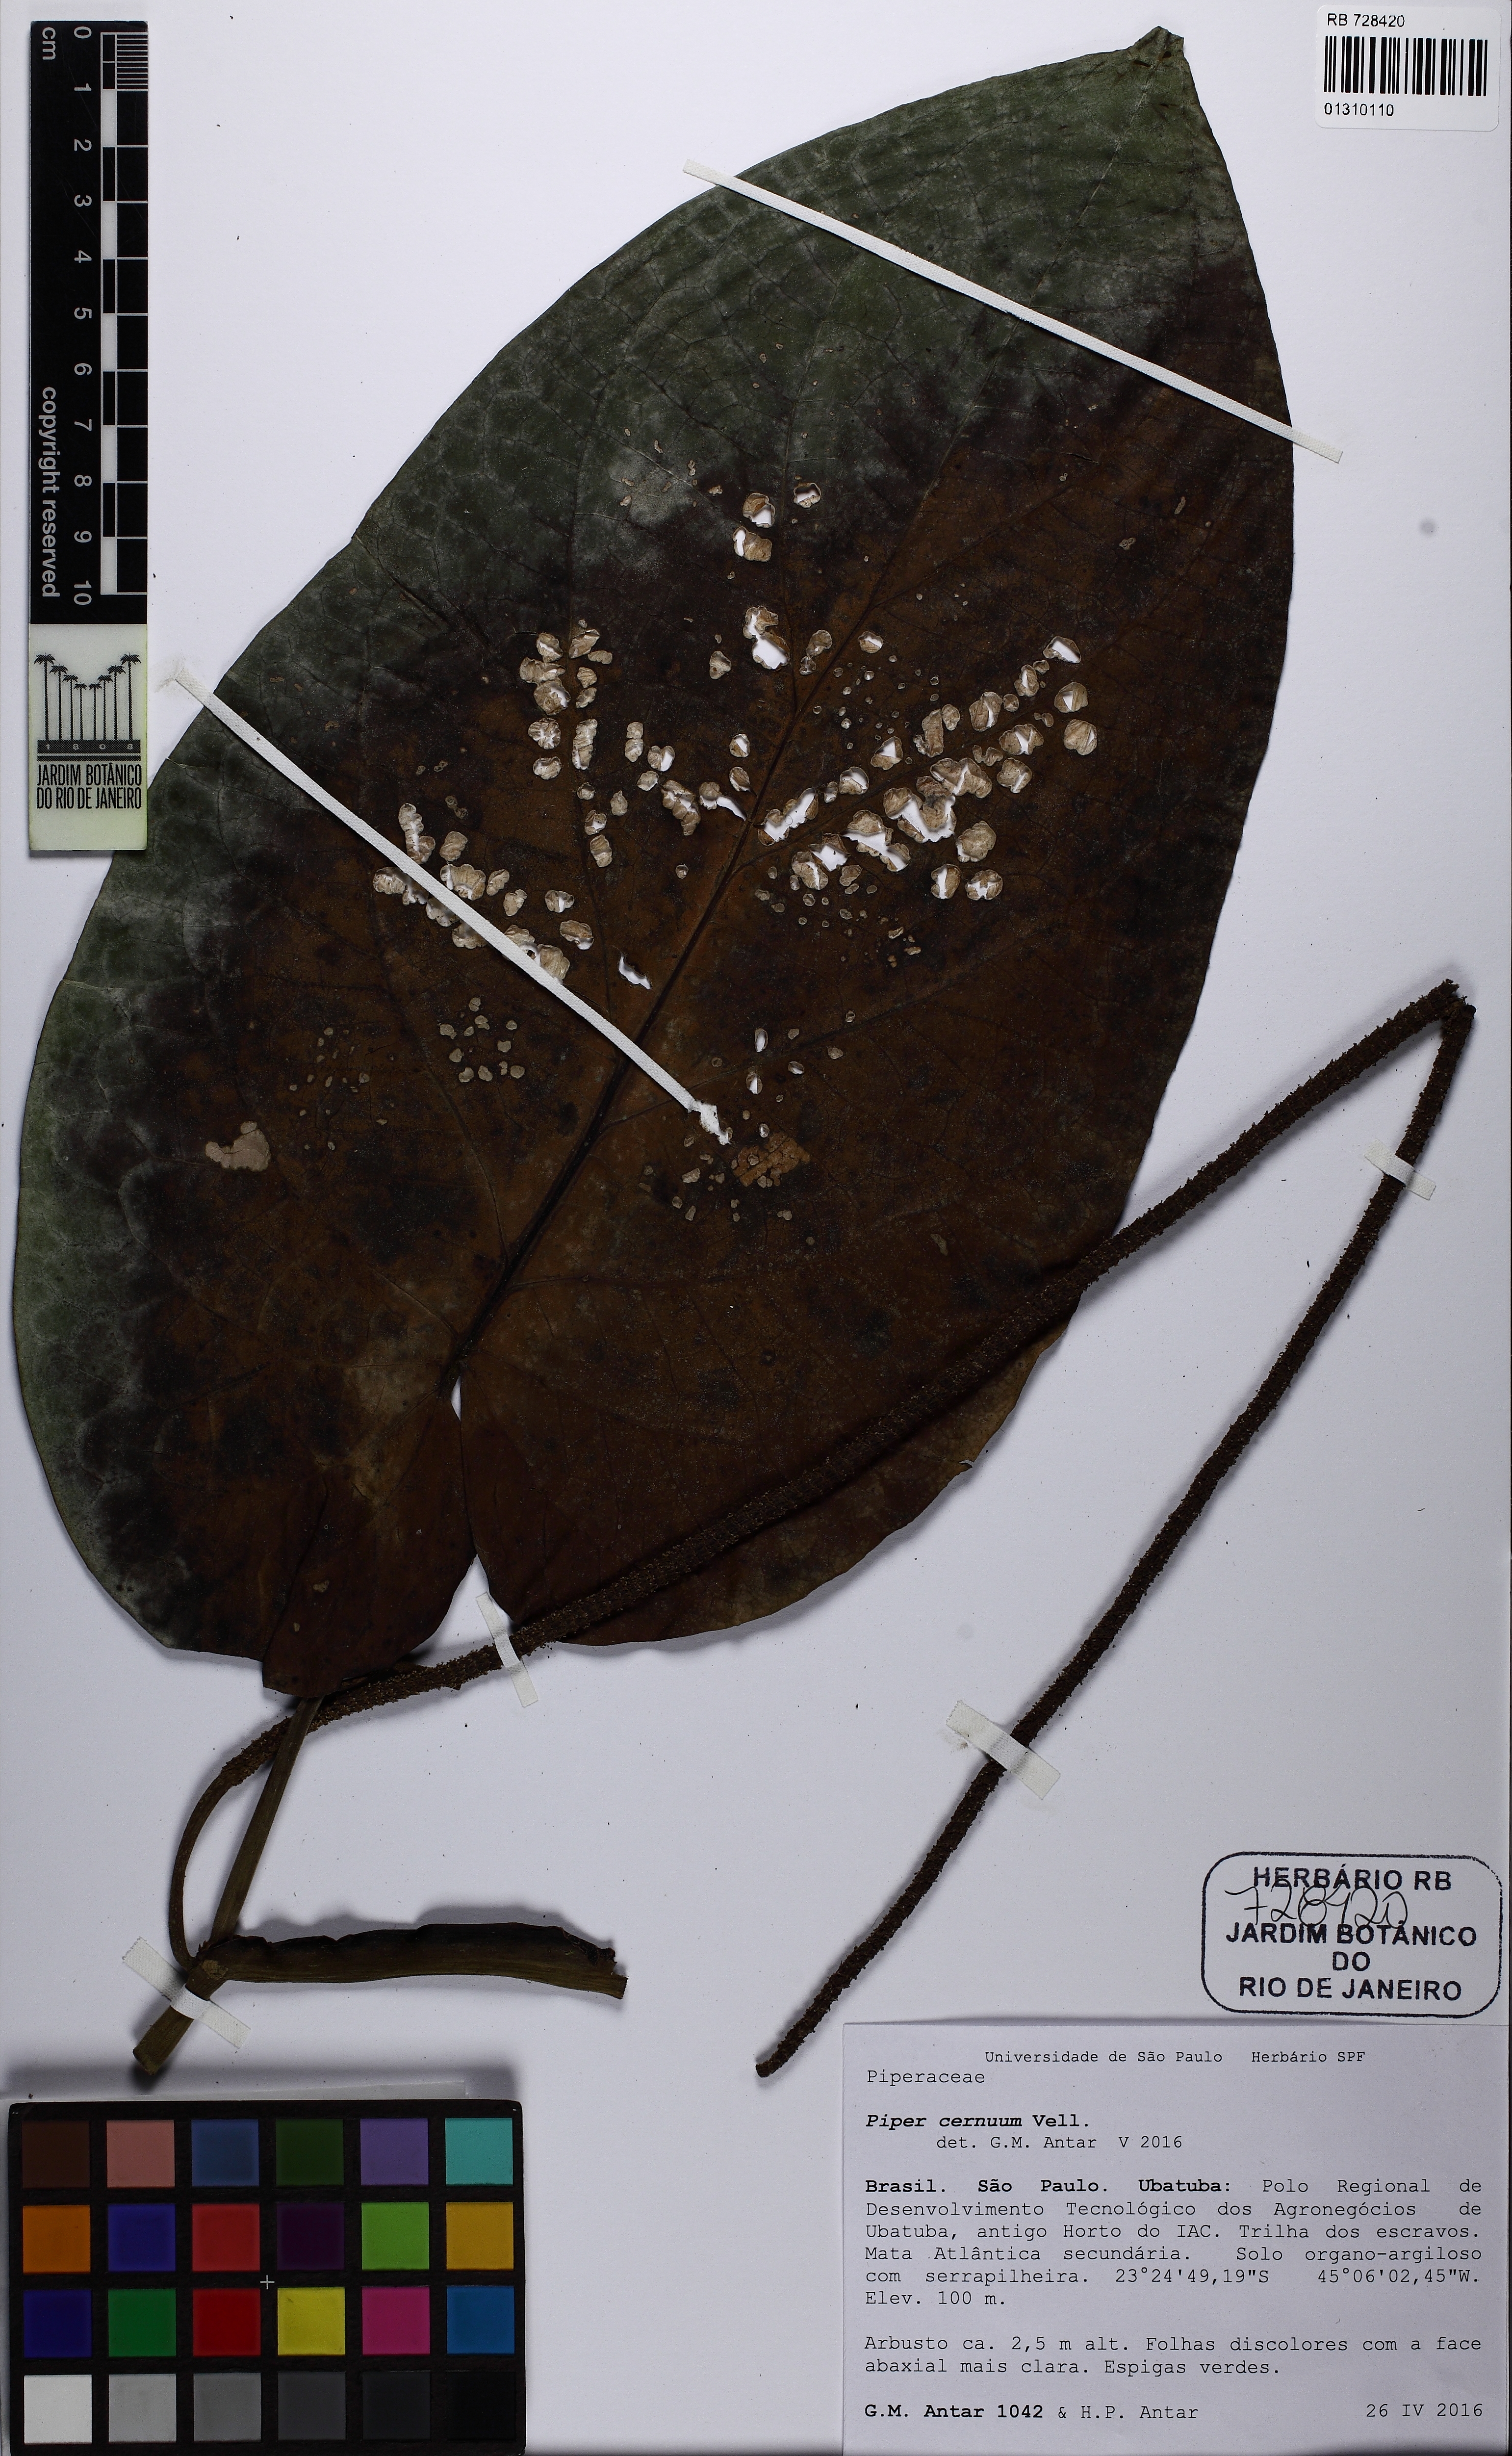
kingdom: Plantae
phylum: Tracheophyta
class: Magnoliopsida
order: Piperales
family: Piperaceae
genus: Piper
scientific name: Piper cernuum
